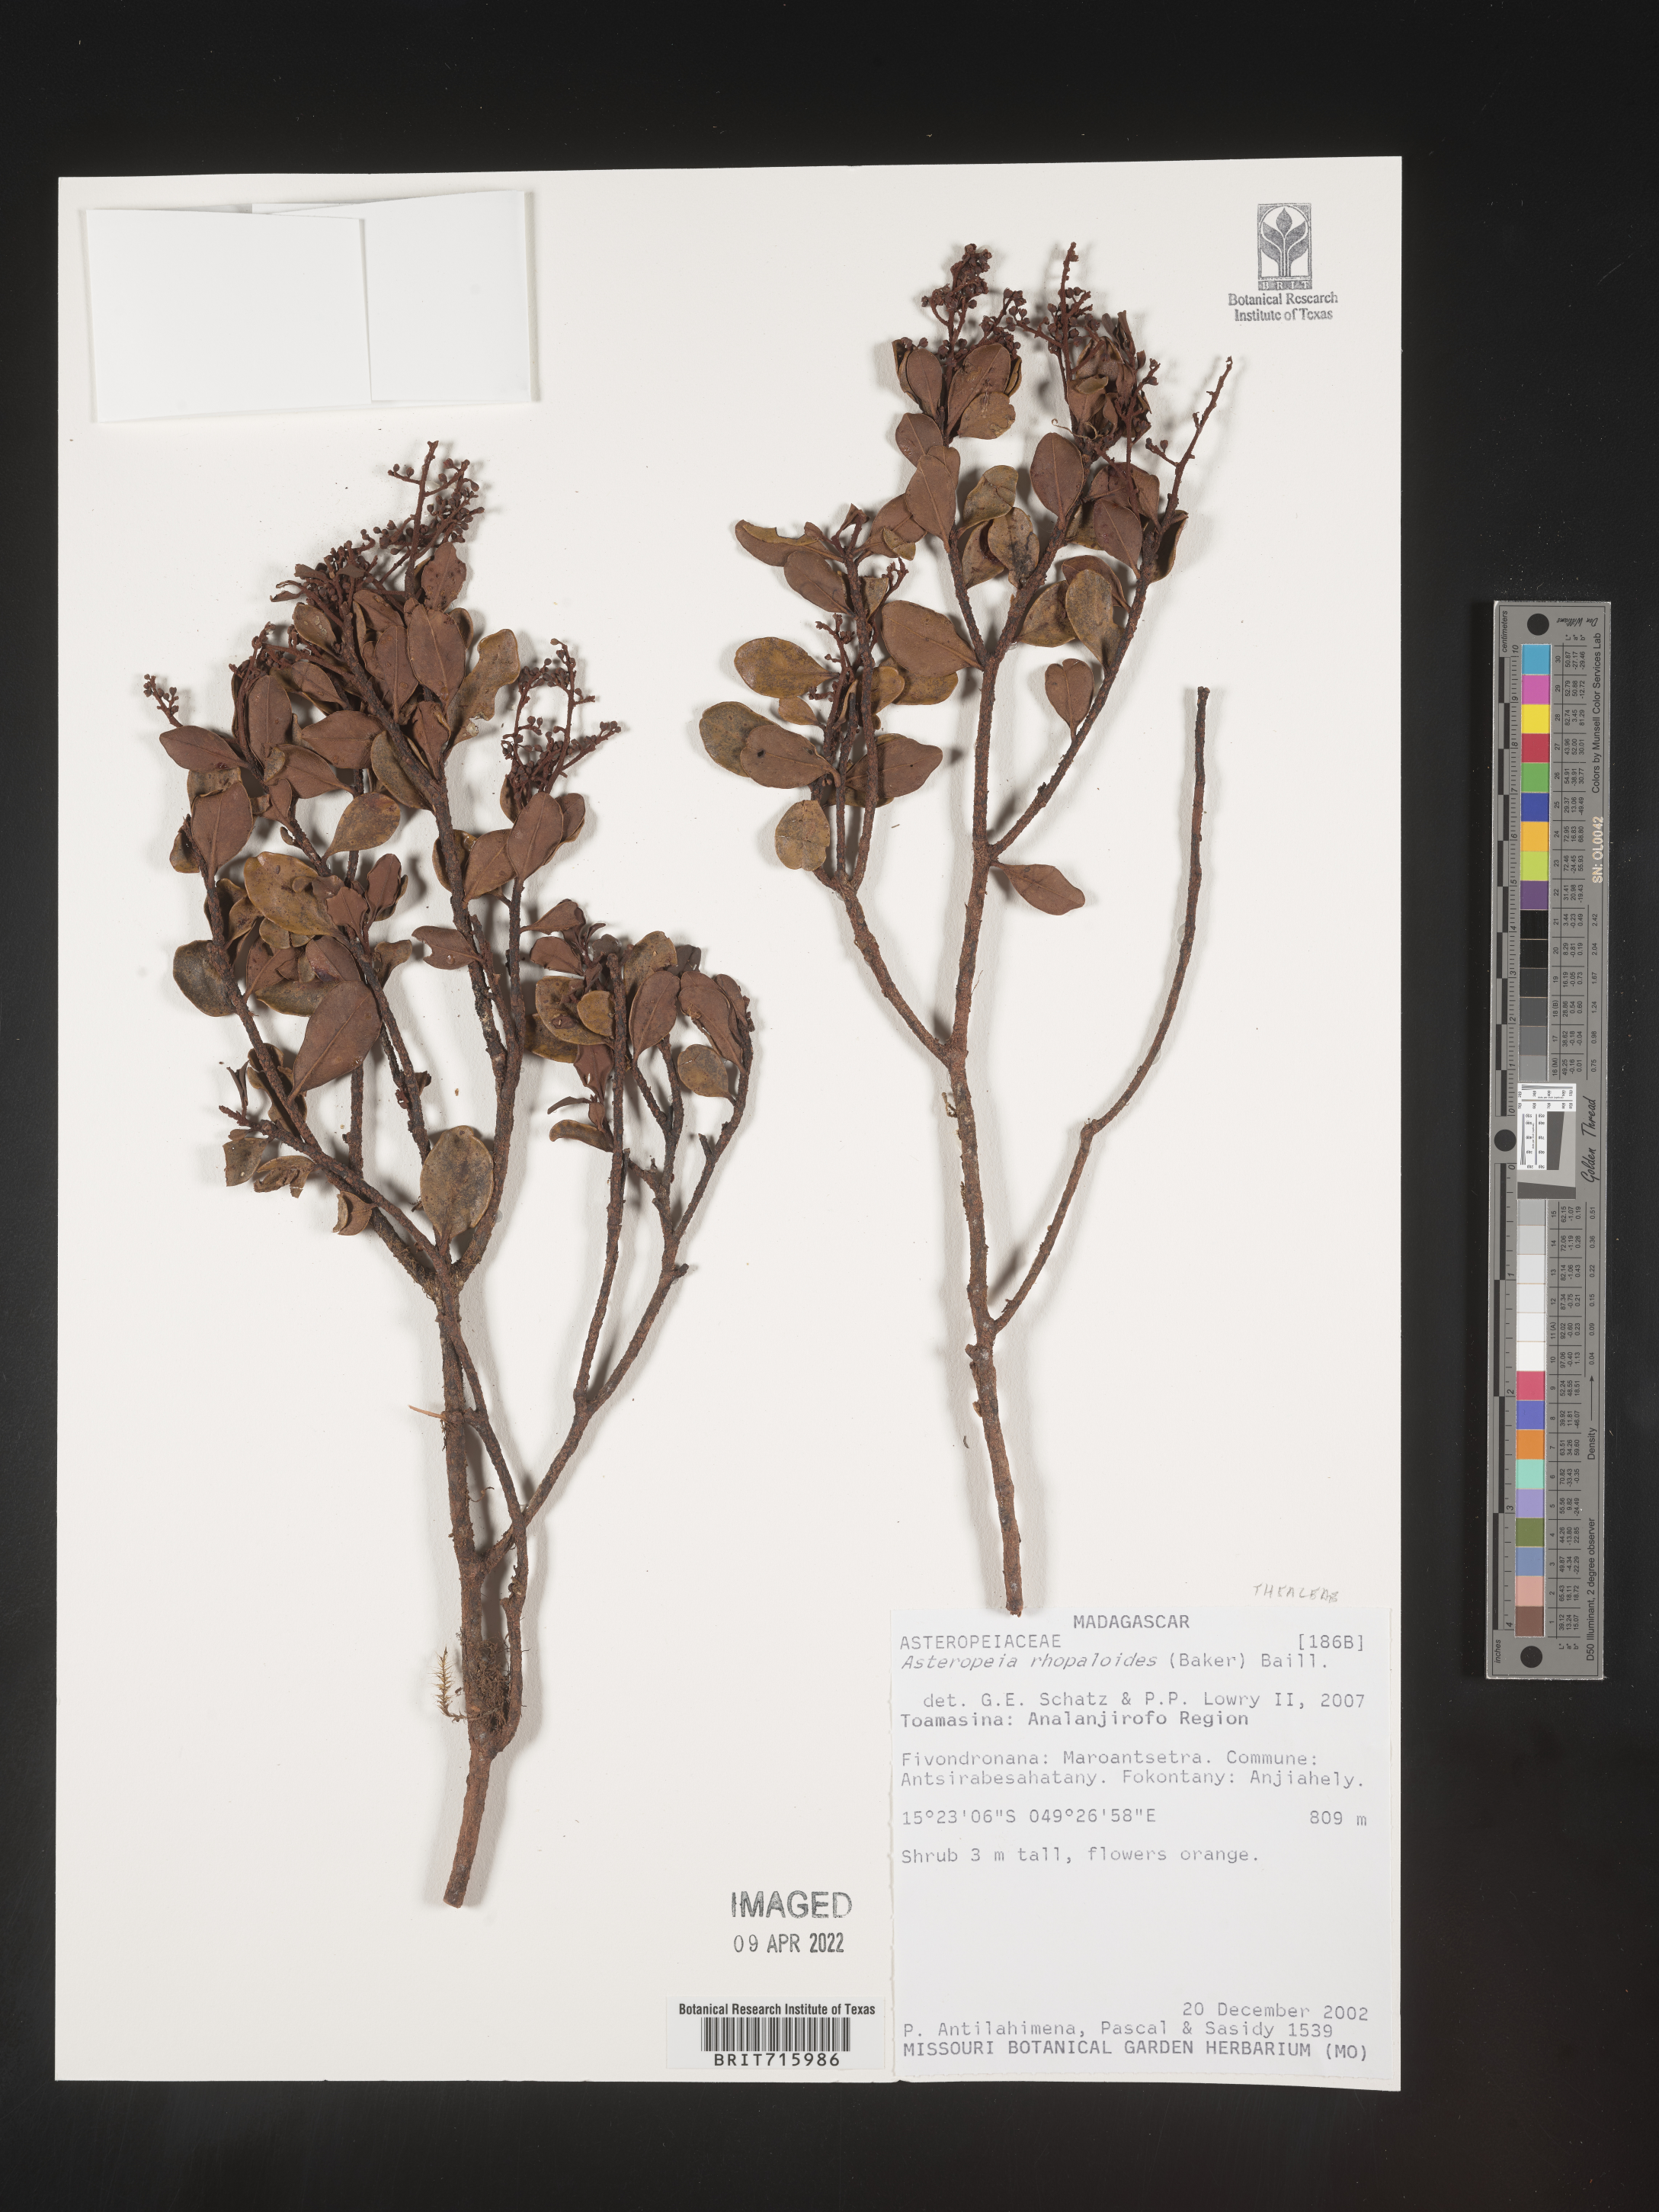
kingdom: Plantae
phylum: Tracheophyta
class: Magnoliopsida
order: Caryophyllales
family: Asteropeiaceae
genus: Asteropeia
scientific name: Asteropeia
